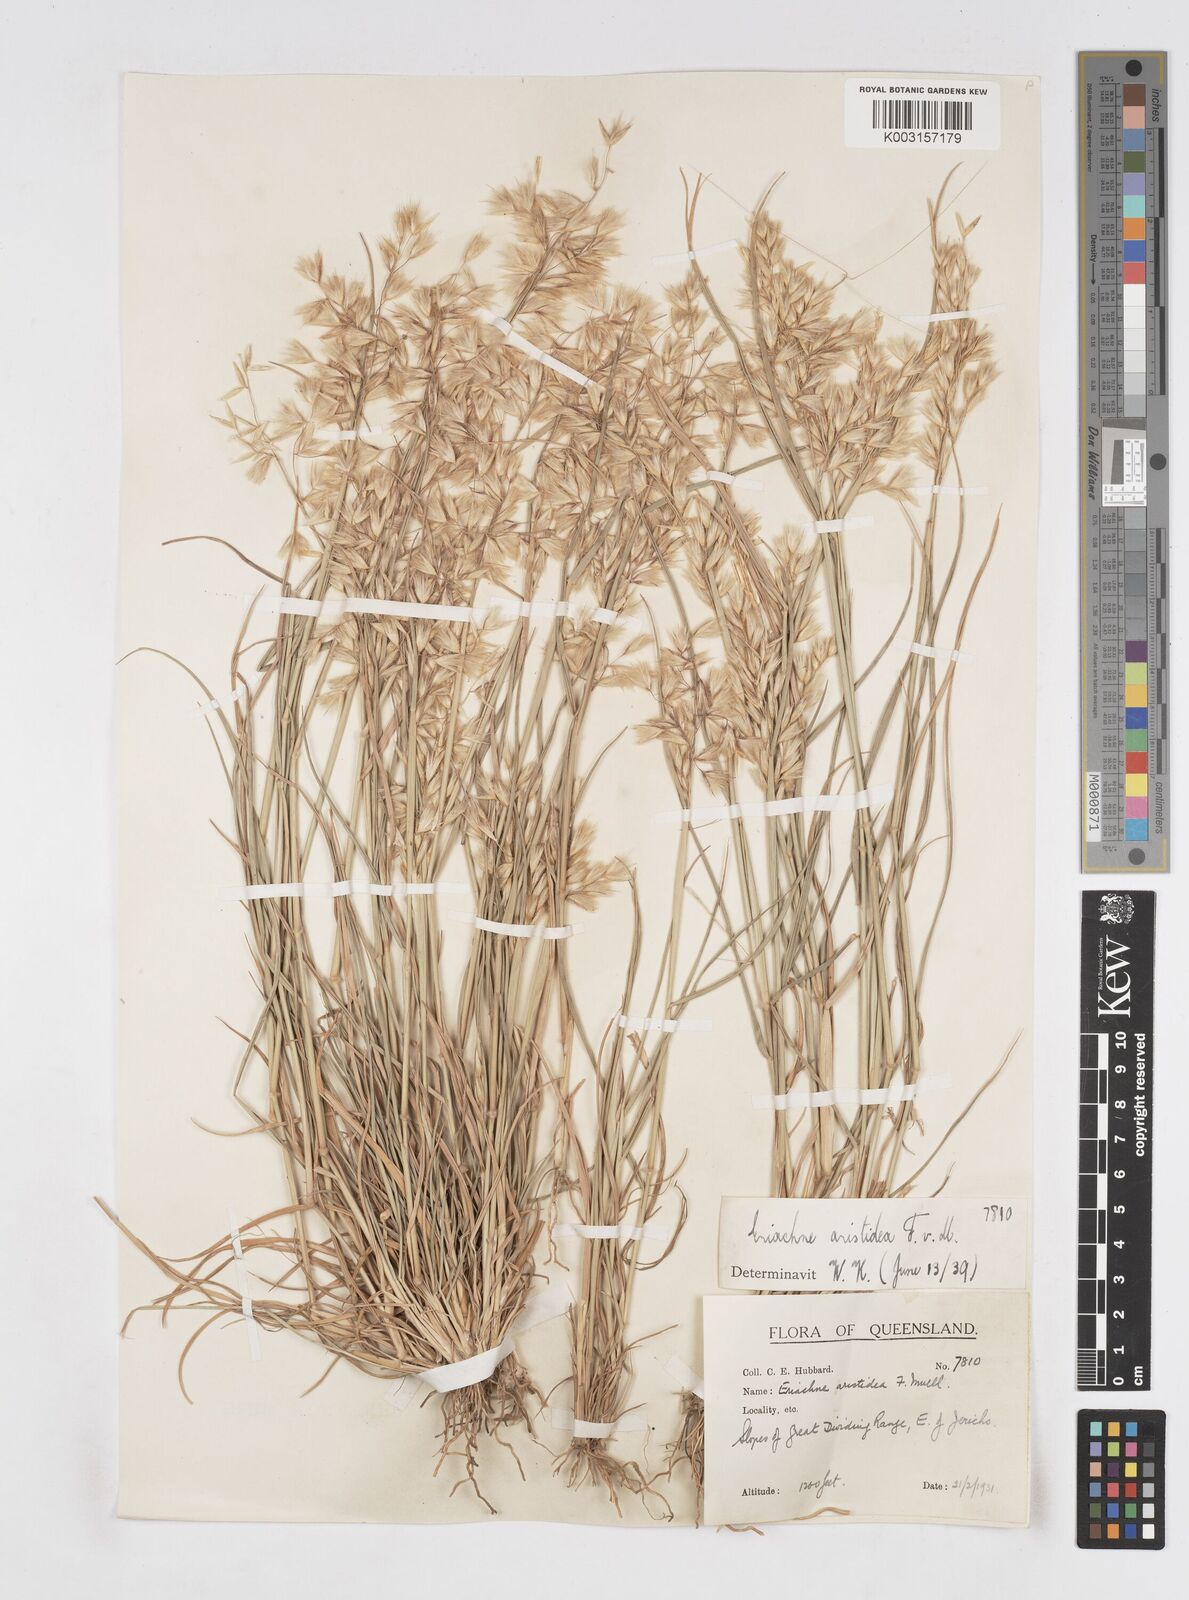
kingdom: Plantae
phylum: Tracheophyta
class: Liliopsida
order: Poales
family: Poaceae
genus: Eriachne
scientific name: Eriachne aristidea
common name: Three-awn wanderrie grass
